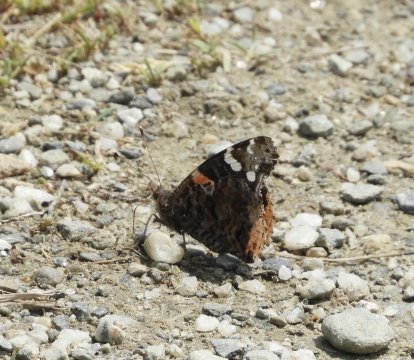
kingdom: Animalia
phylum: Arthropoda
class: Insecta
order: Lepidoptera
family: Nymphalidae
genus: Vanessa
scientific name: Vanessa atalanta
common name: Red Admiral
